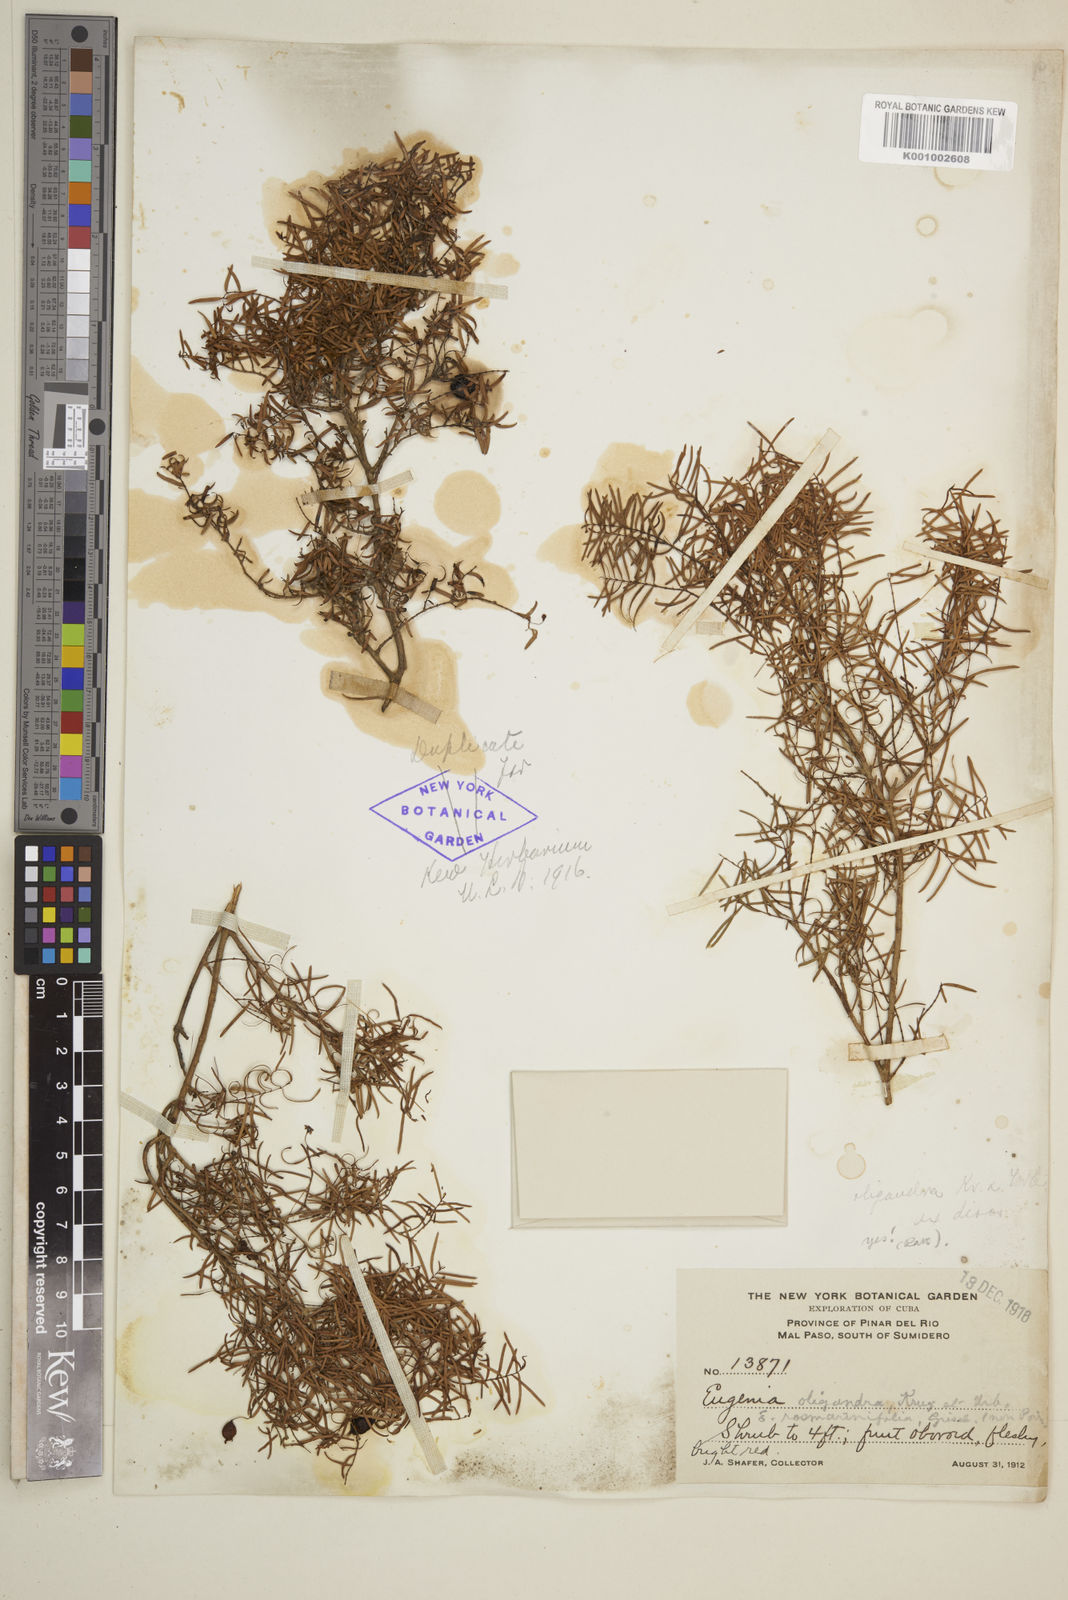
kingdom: Plantae
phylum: Tracheophyta
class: Magnoliopsida
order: Myrtales
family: Myrtaceae
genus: Eugenia
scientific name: Eugenia oligandra
